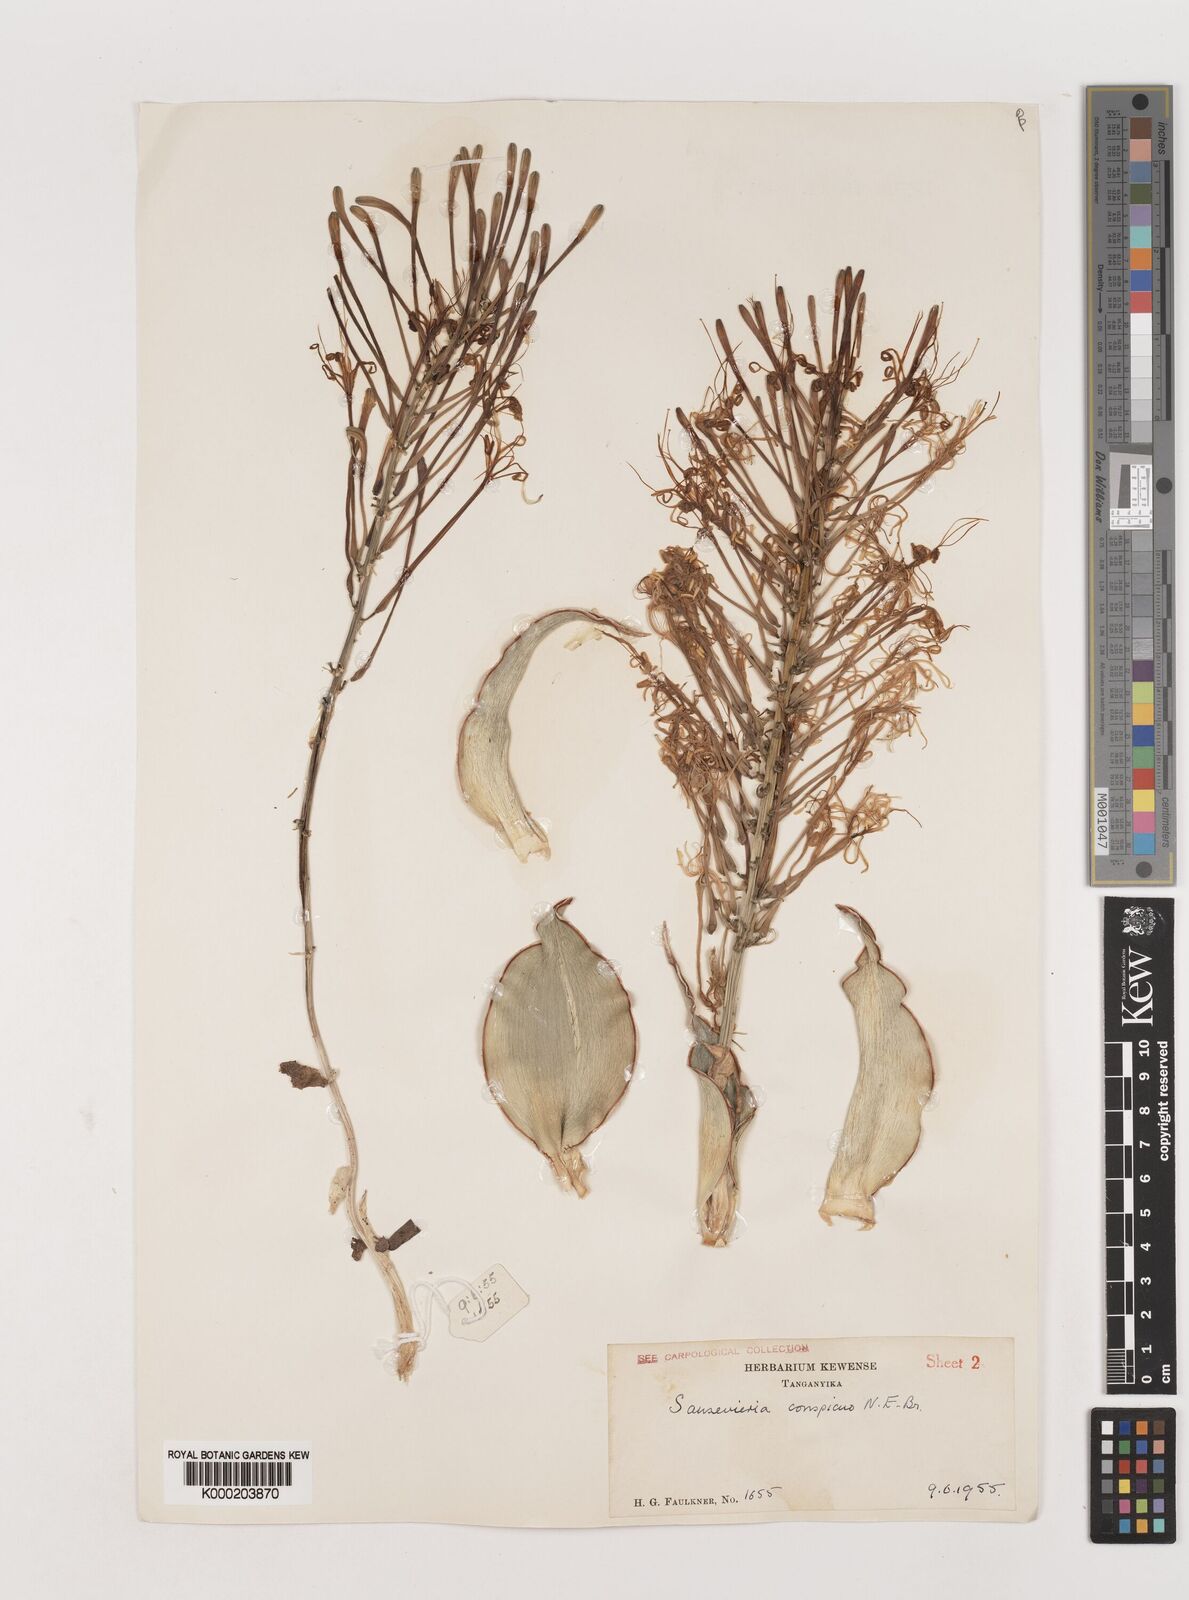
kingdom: Plantae
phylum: Tracheophyta
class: Liliopsida
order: Asparagales
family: Asparagaceae
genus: Dracaena
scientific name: Dracaena conspicua
